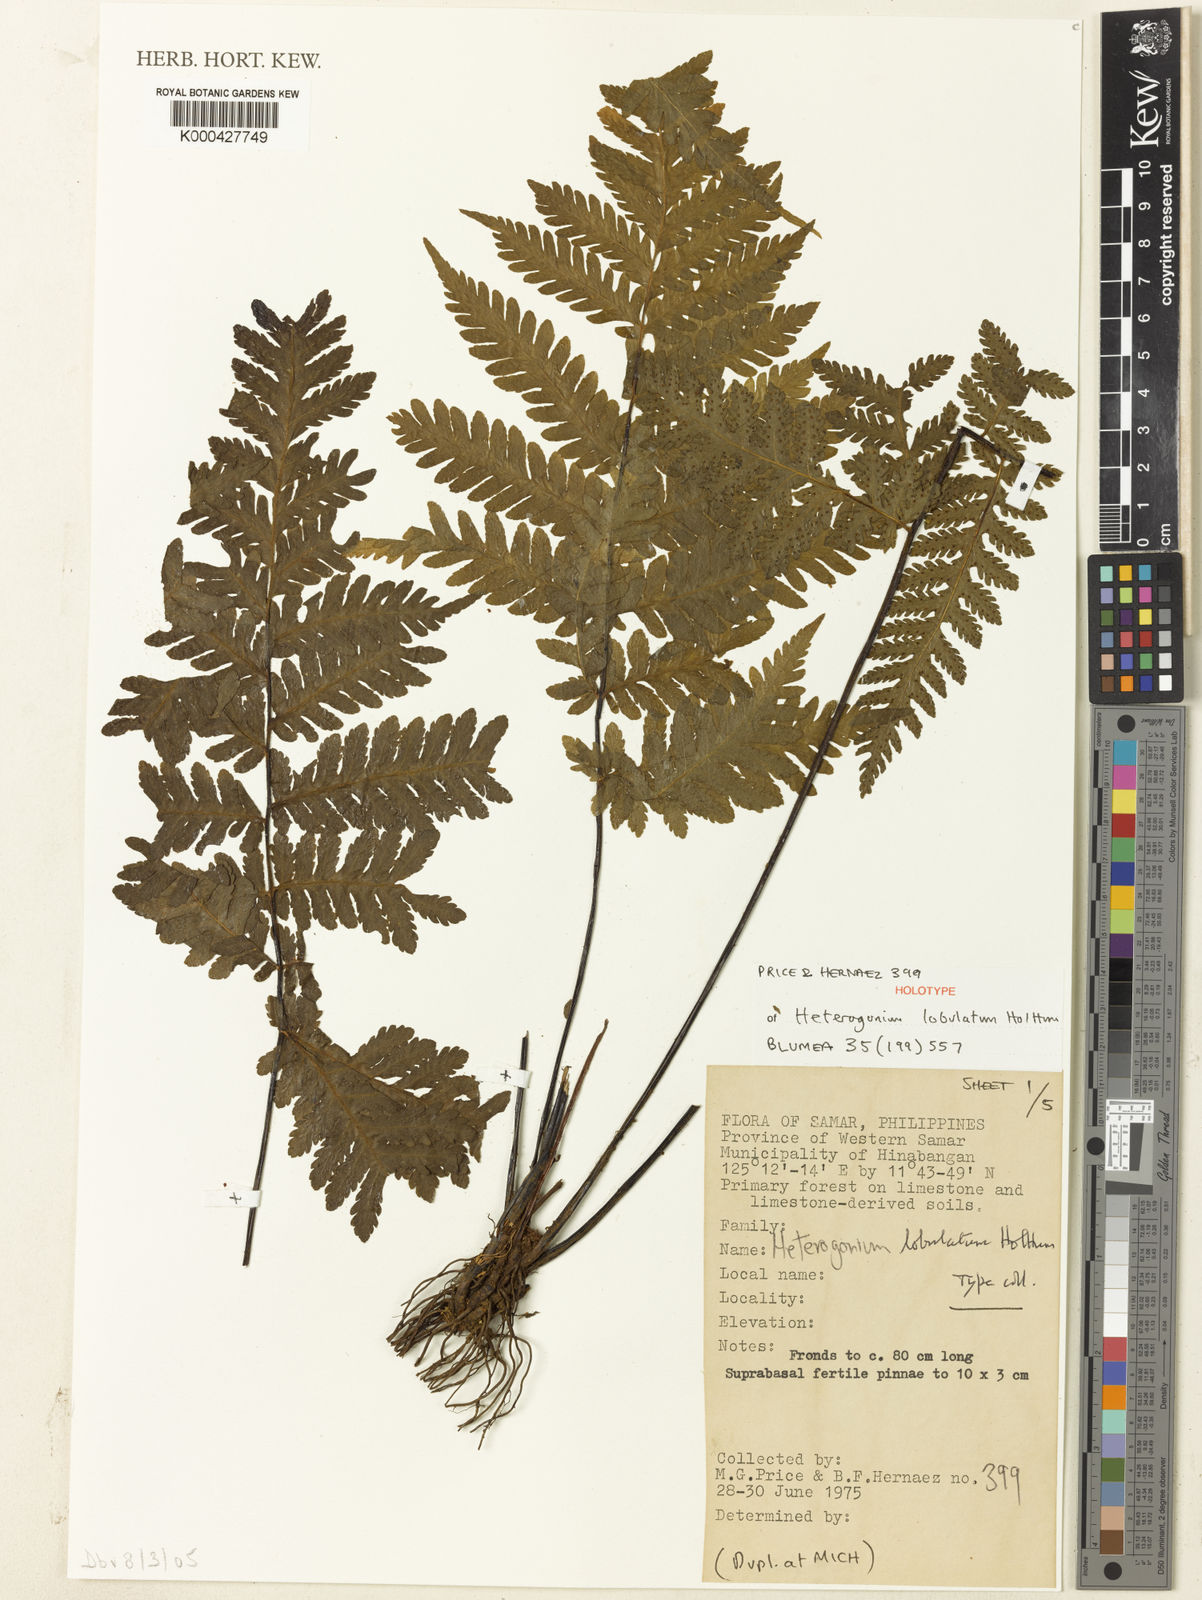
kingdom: Plantae
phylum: Tracheophyta
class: Polypodiopsida
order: Polypodiales
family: Tectariaceae
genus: Tectaria
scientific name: Tectaria samariana
